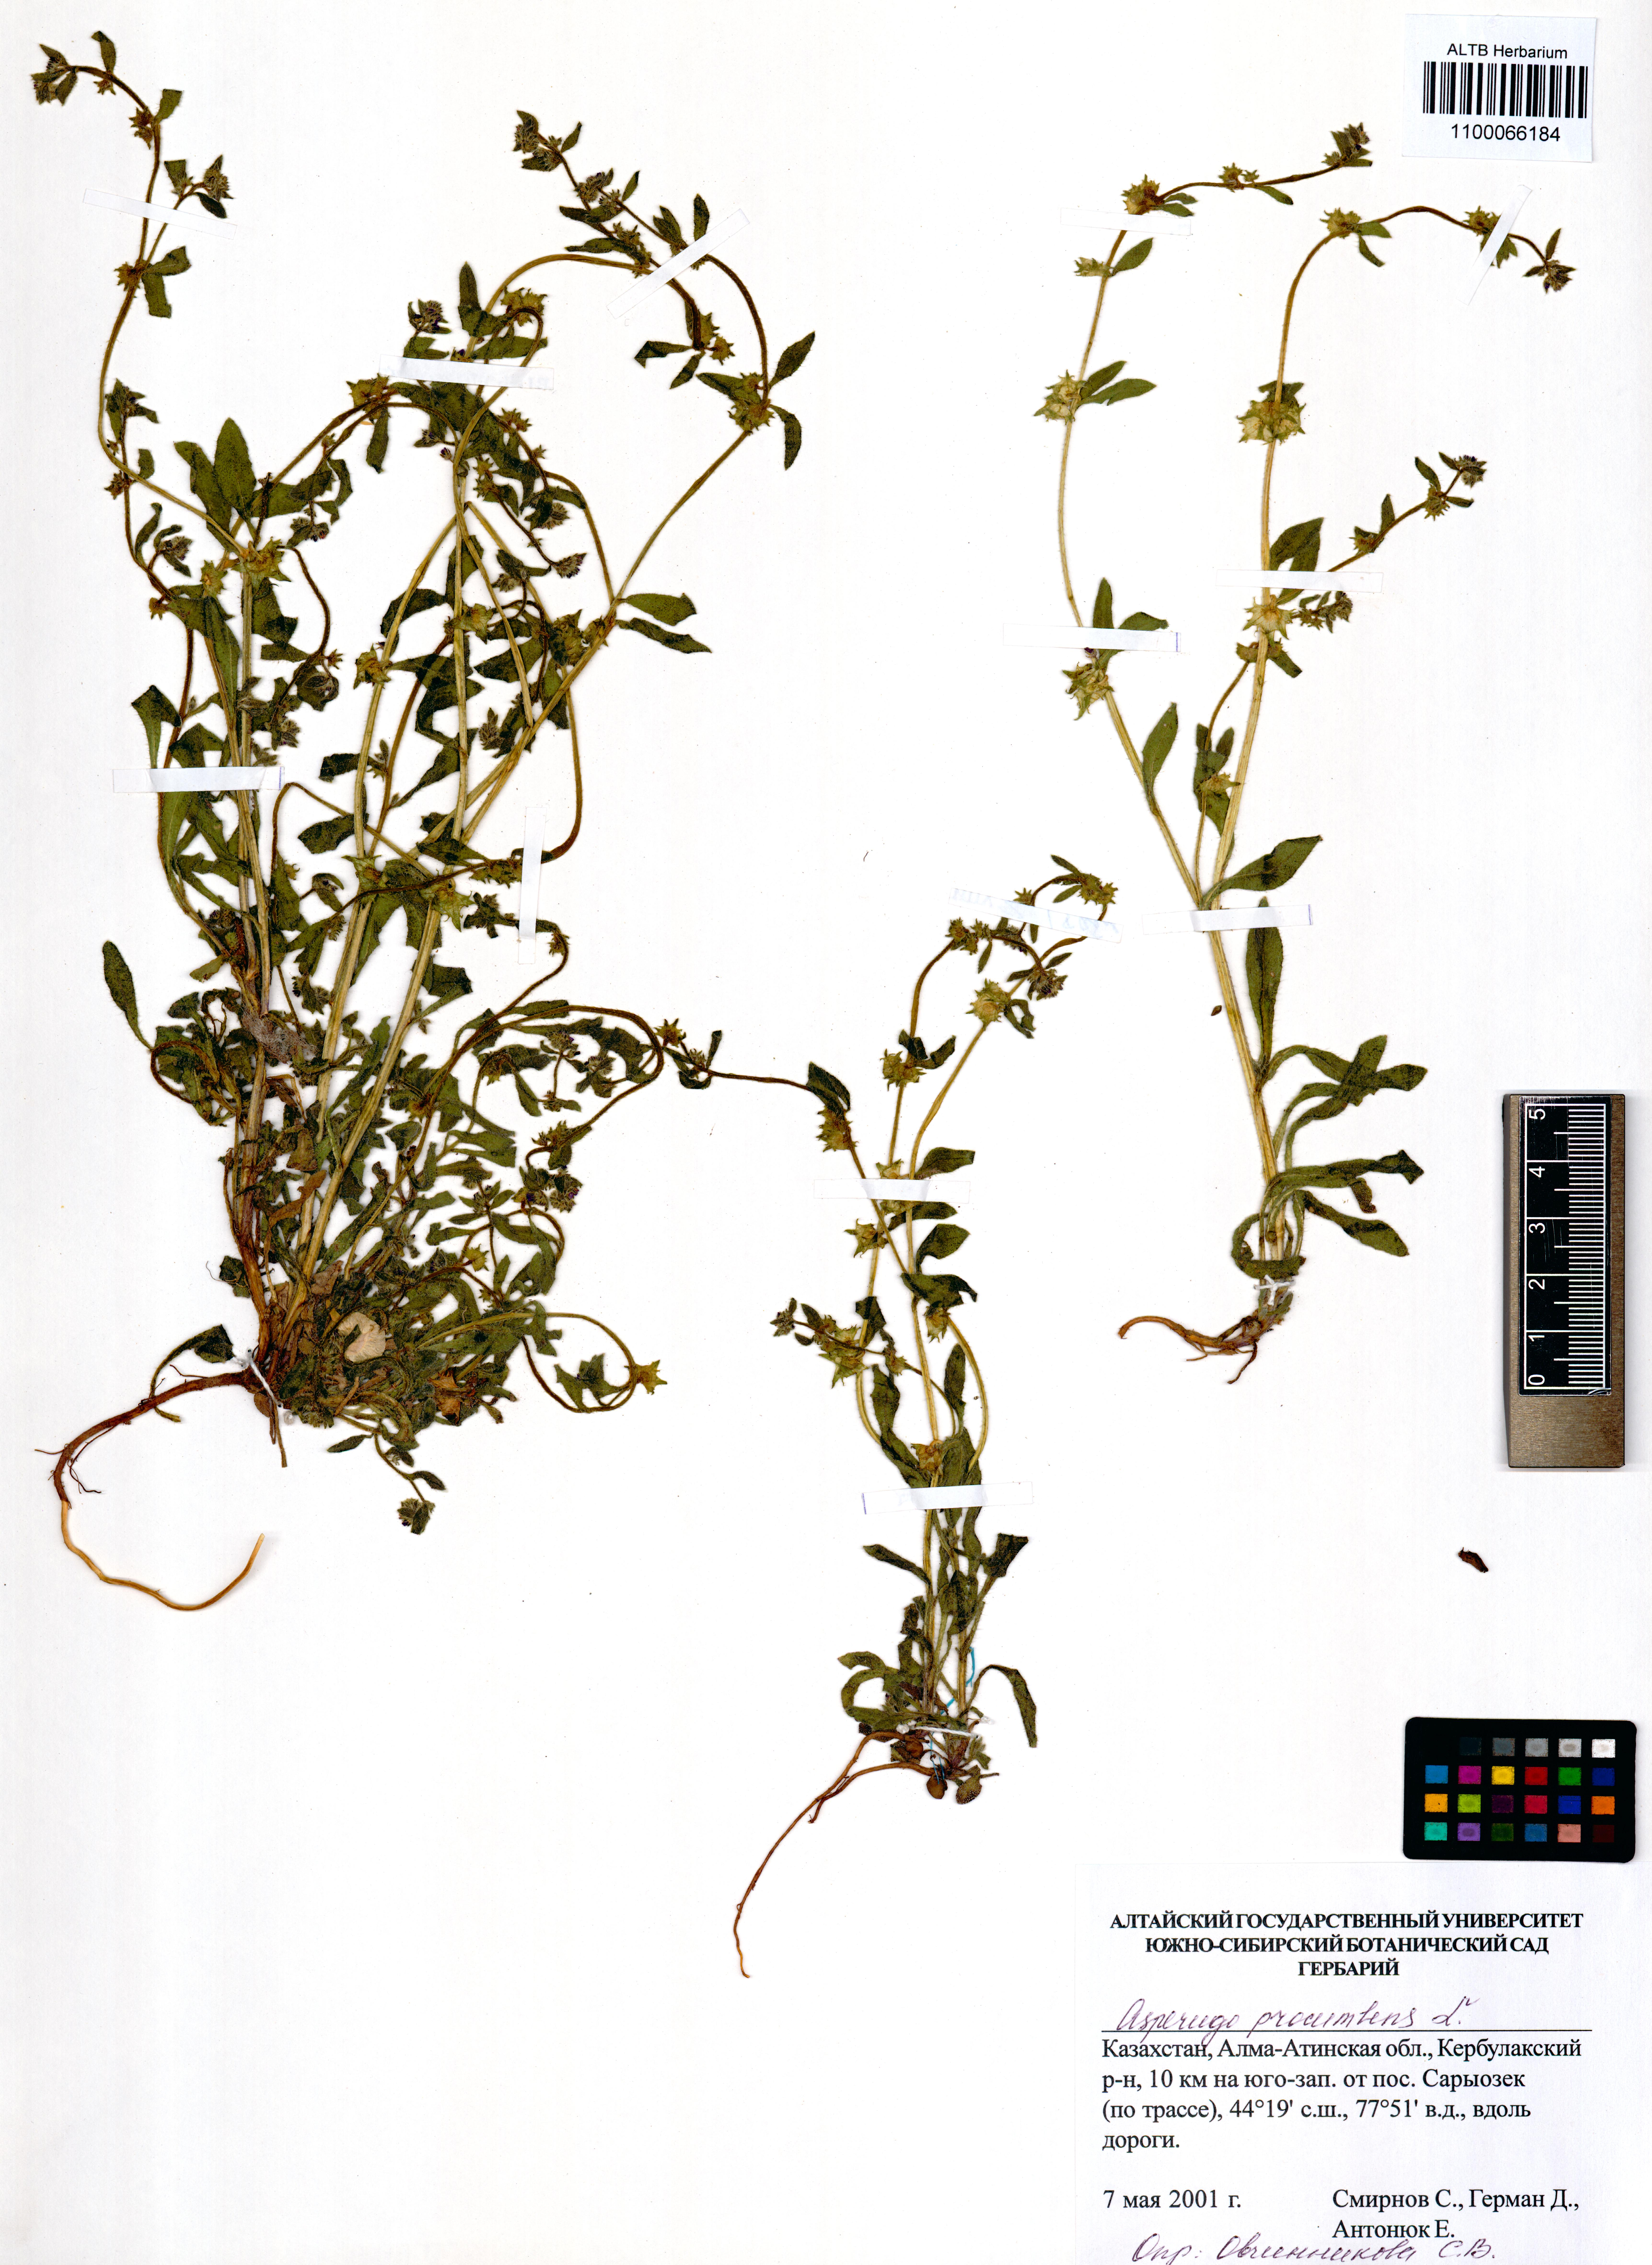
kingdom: Plantae
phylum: Tracheophyta
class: Magnoliopsida
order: Boraginales
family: Boraginaceae
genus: Asperugo
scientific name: Asperugo procumbens
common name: Madwort
